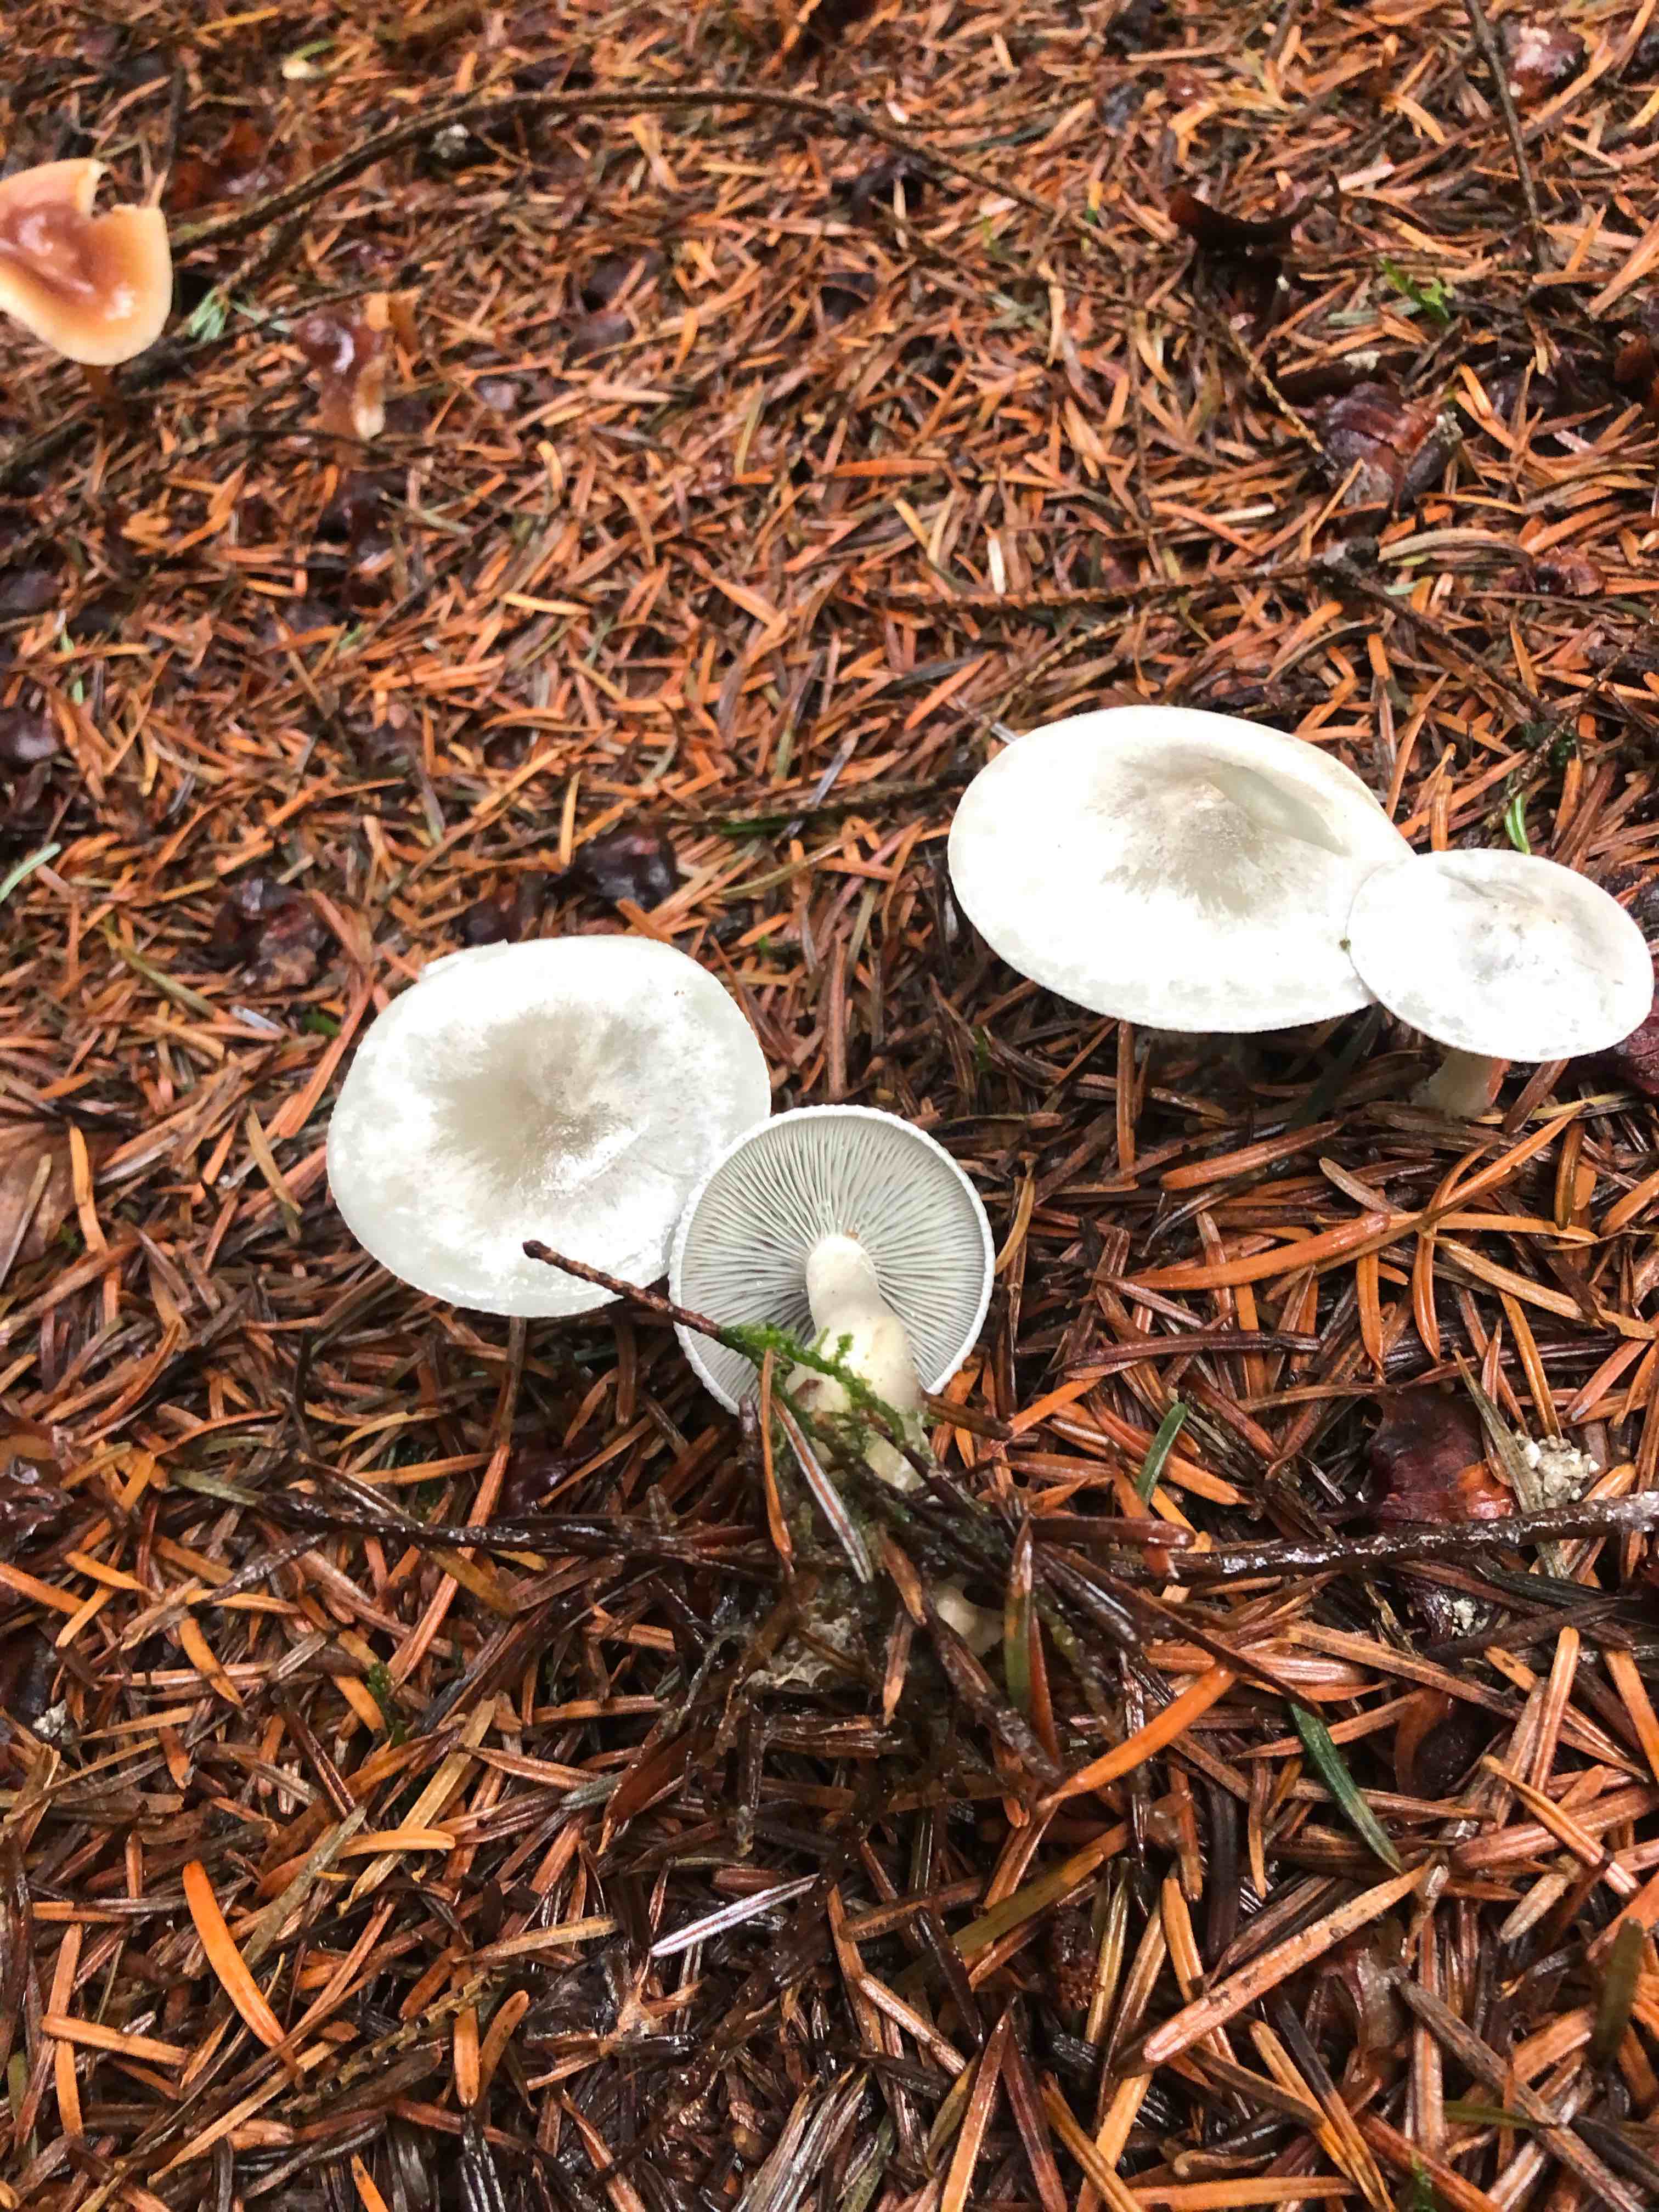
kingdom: Fungi
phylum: Basidiomycota
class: Agaricomycetes
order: Agaricales
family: Tricholomataceae
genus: Clitocybe
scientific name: Clitocybe odora
